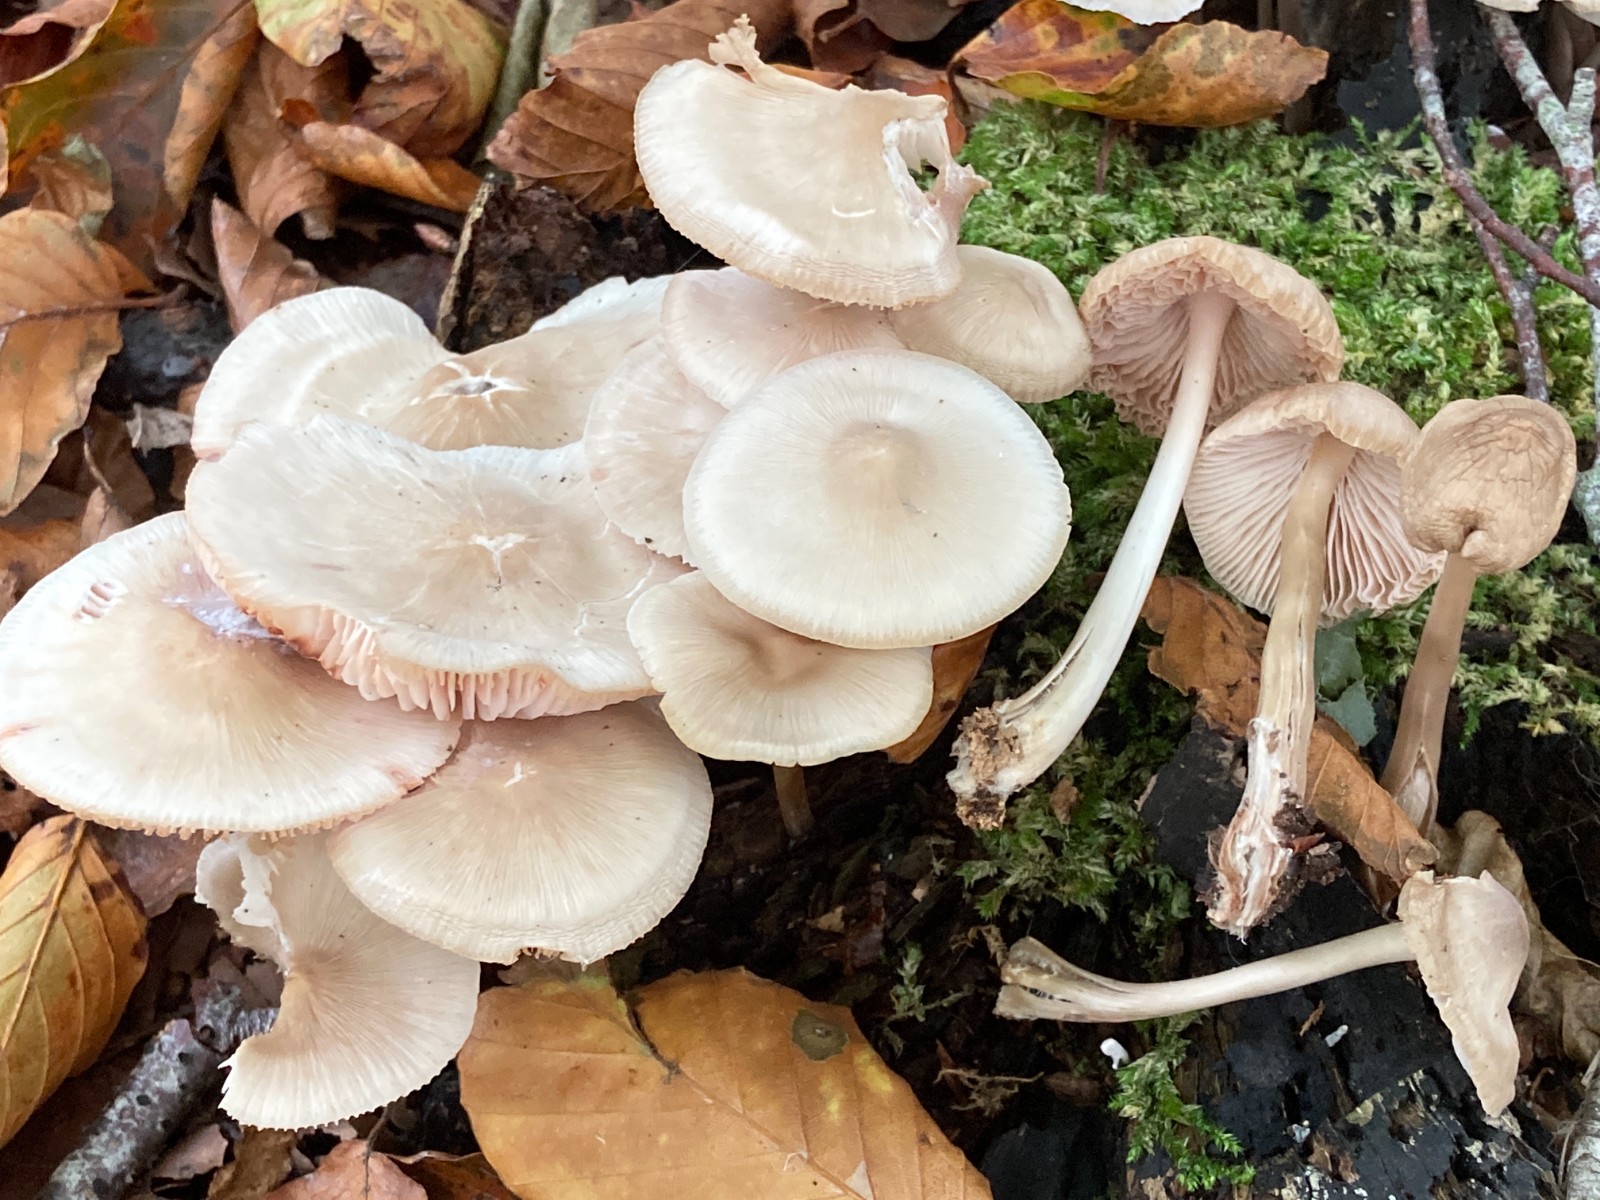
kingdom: Fungi
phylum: Basidiomycota
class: Agaricomycetes
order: Agaricales
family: Mycenaceae
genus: Mycena
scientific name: Mycena galericulata
